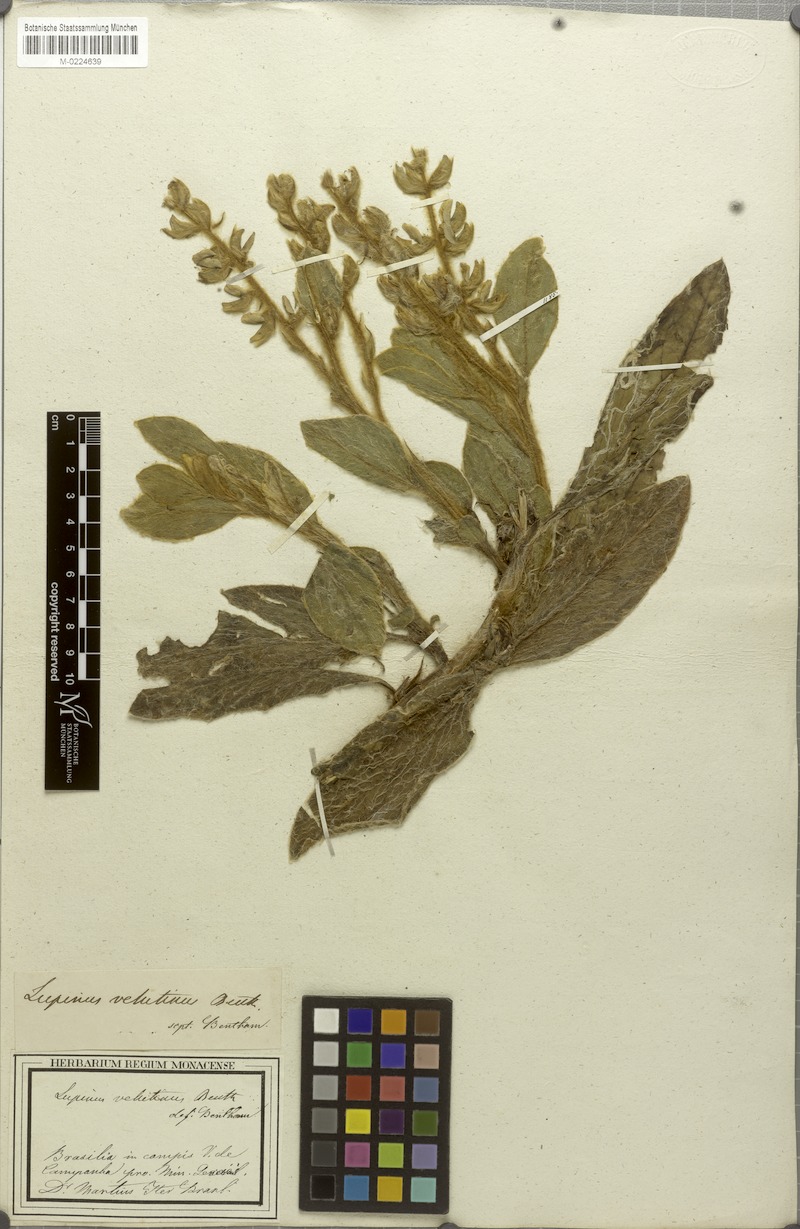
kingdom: Plantae
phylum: Tracheophyta
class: Magnoliopsida
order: Fabales
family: Fabaceae
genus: Lupinus
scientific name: Lupinus velutinus
